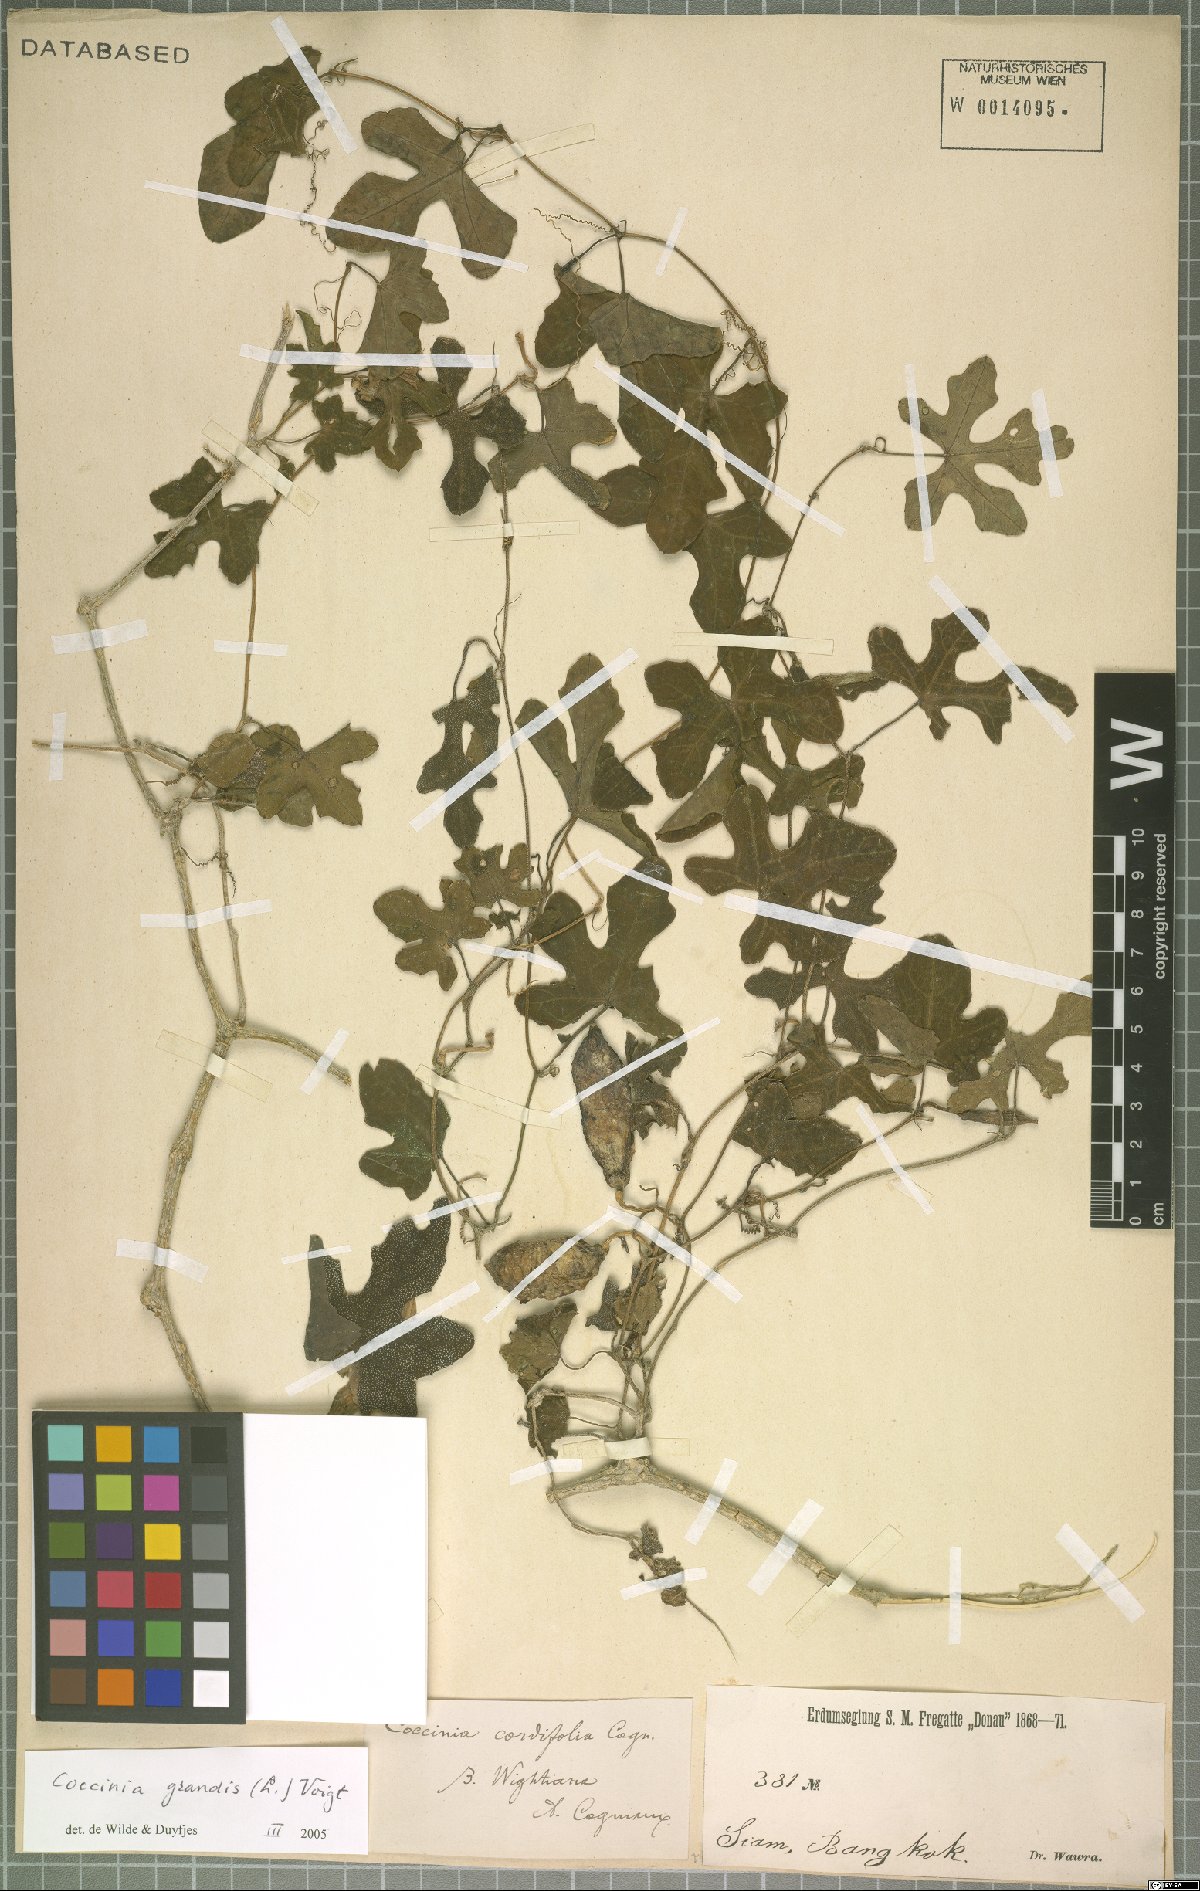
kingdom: Plantae
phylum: Tracheophyta
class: Magnoliopsida
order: Cucurbitales
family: Cucurbitaceae
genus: Coccinia
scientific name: Coccinia grandis
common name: Ivy gourd
